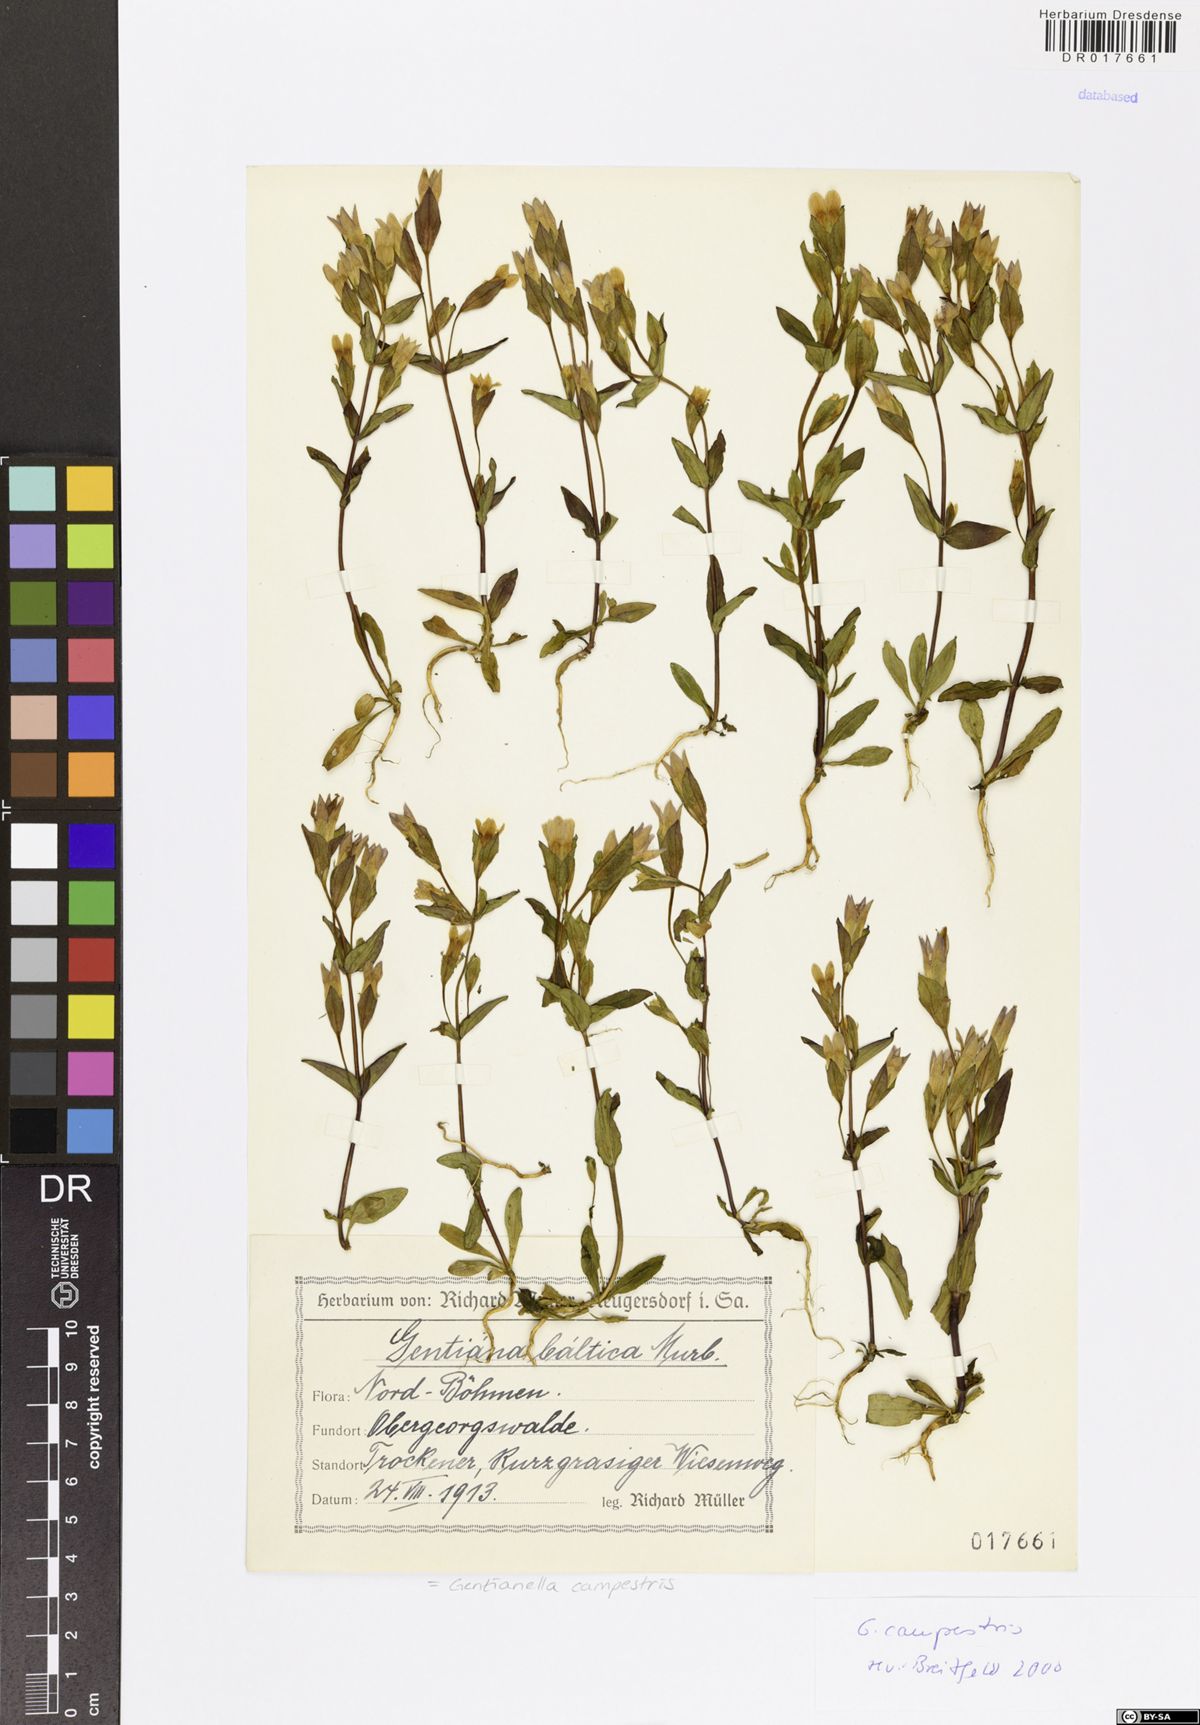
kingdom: Plantae
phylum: Tracheophyta
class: Magnoliopsida
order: Gentianales
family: Gentianaceae
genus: Gentianella
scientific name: Gentianella campestris
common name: Field gentian
